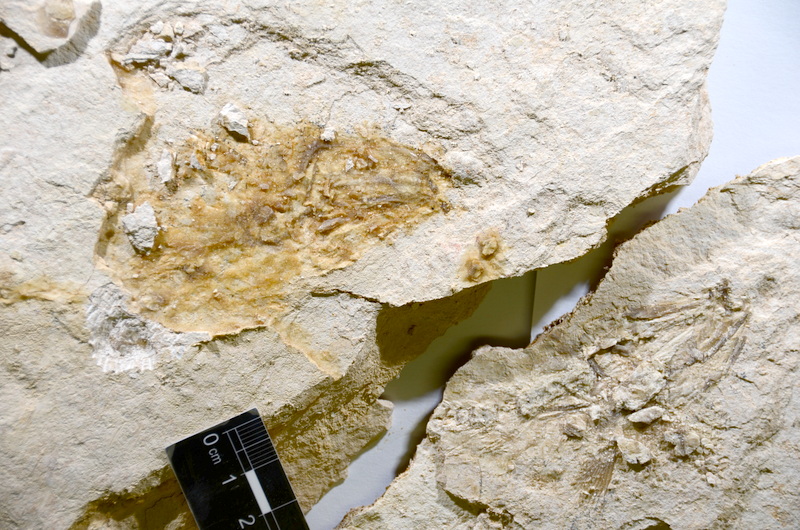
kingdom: Animalia
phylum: Chordata
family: Ascalaboidae
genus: Tharsis
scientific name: Tharsis
